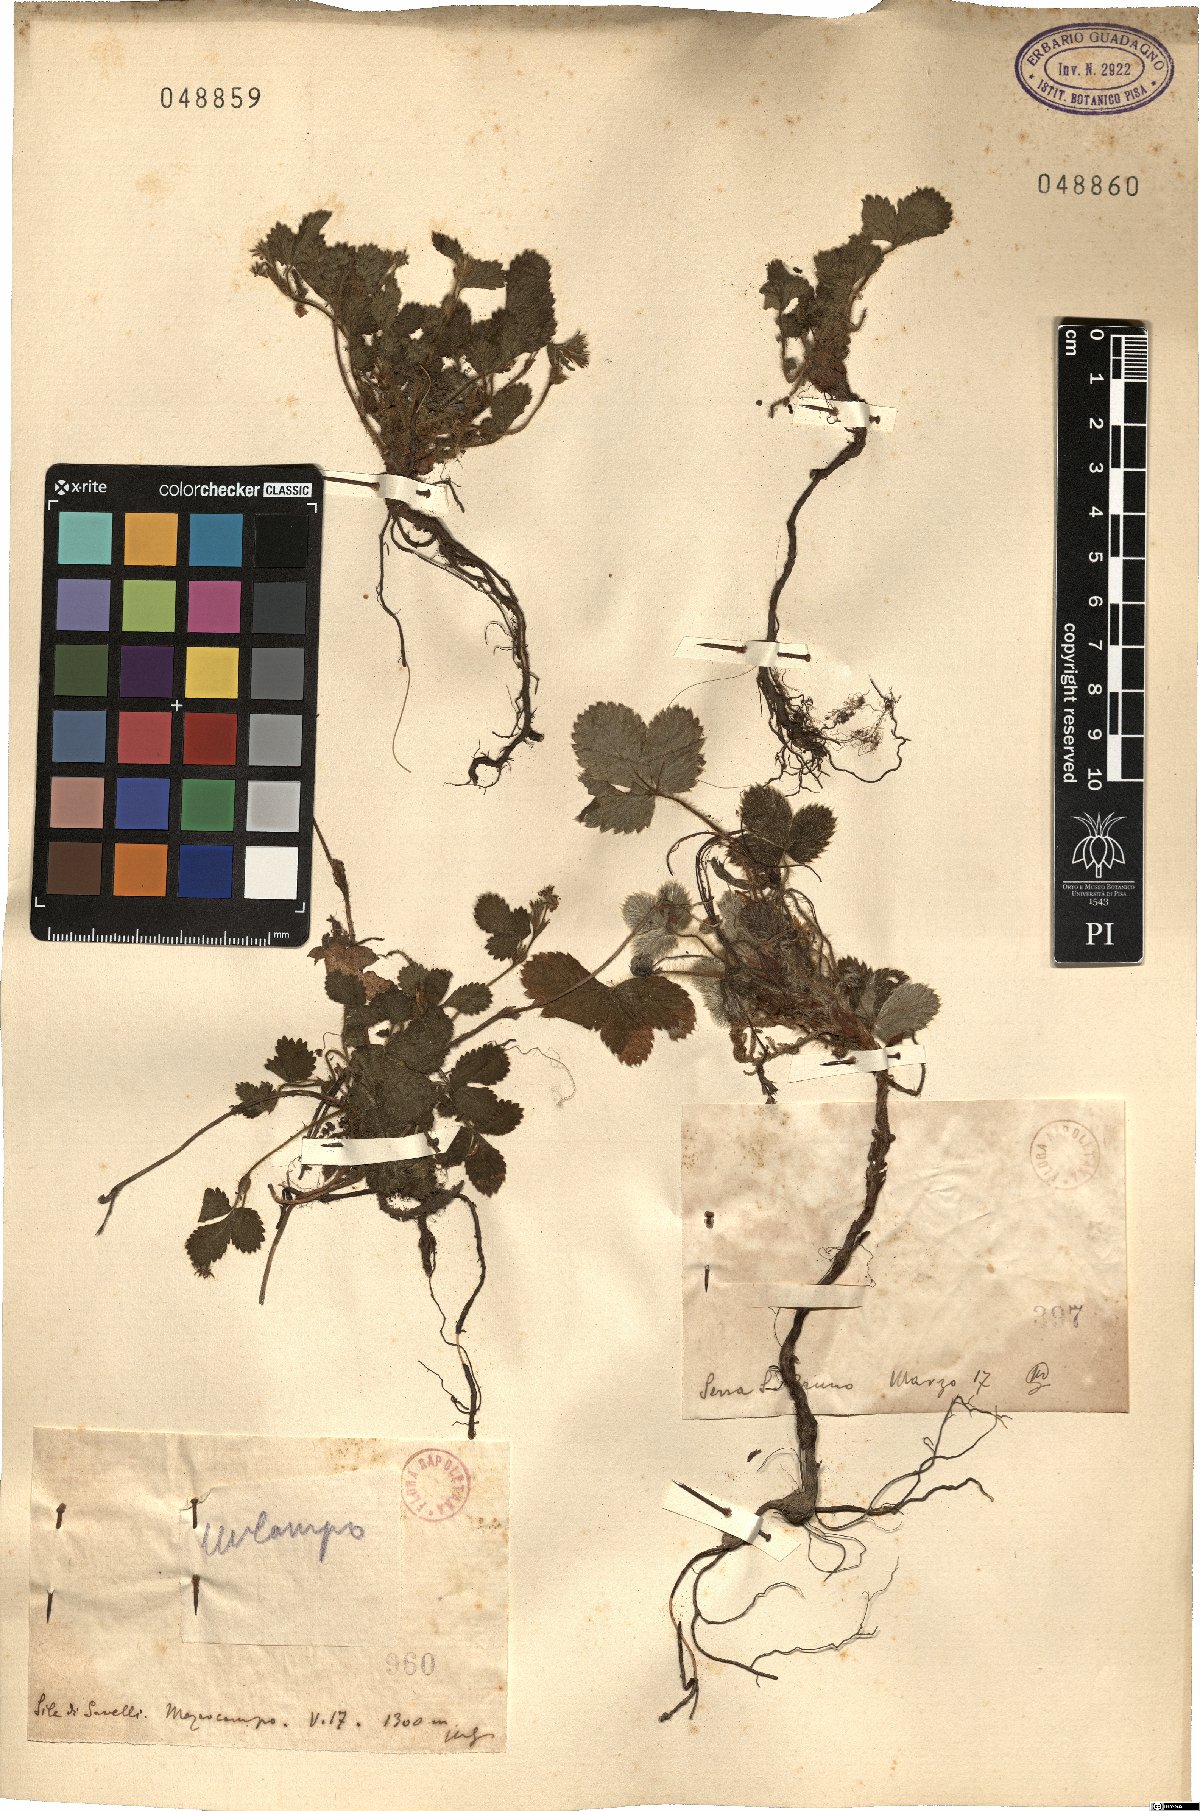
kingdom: Plantae
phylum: Tracheophyta
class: Magnoliopsida
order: Rosales
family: Rosaceae
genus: Potentilla
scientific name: Potentilla
